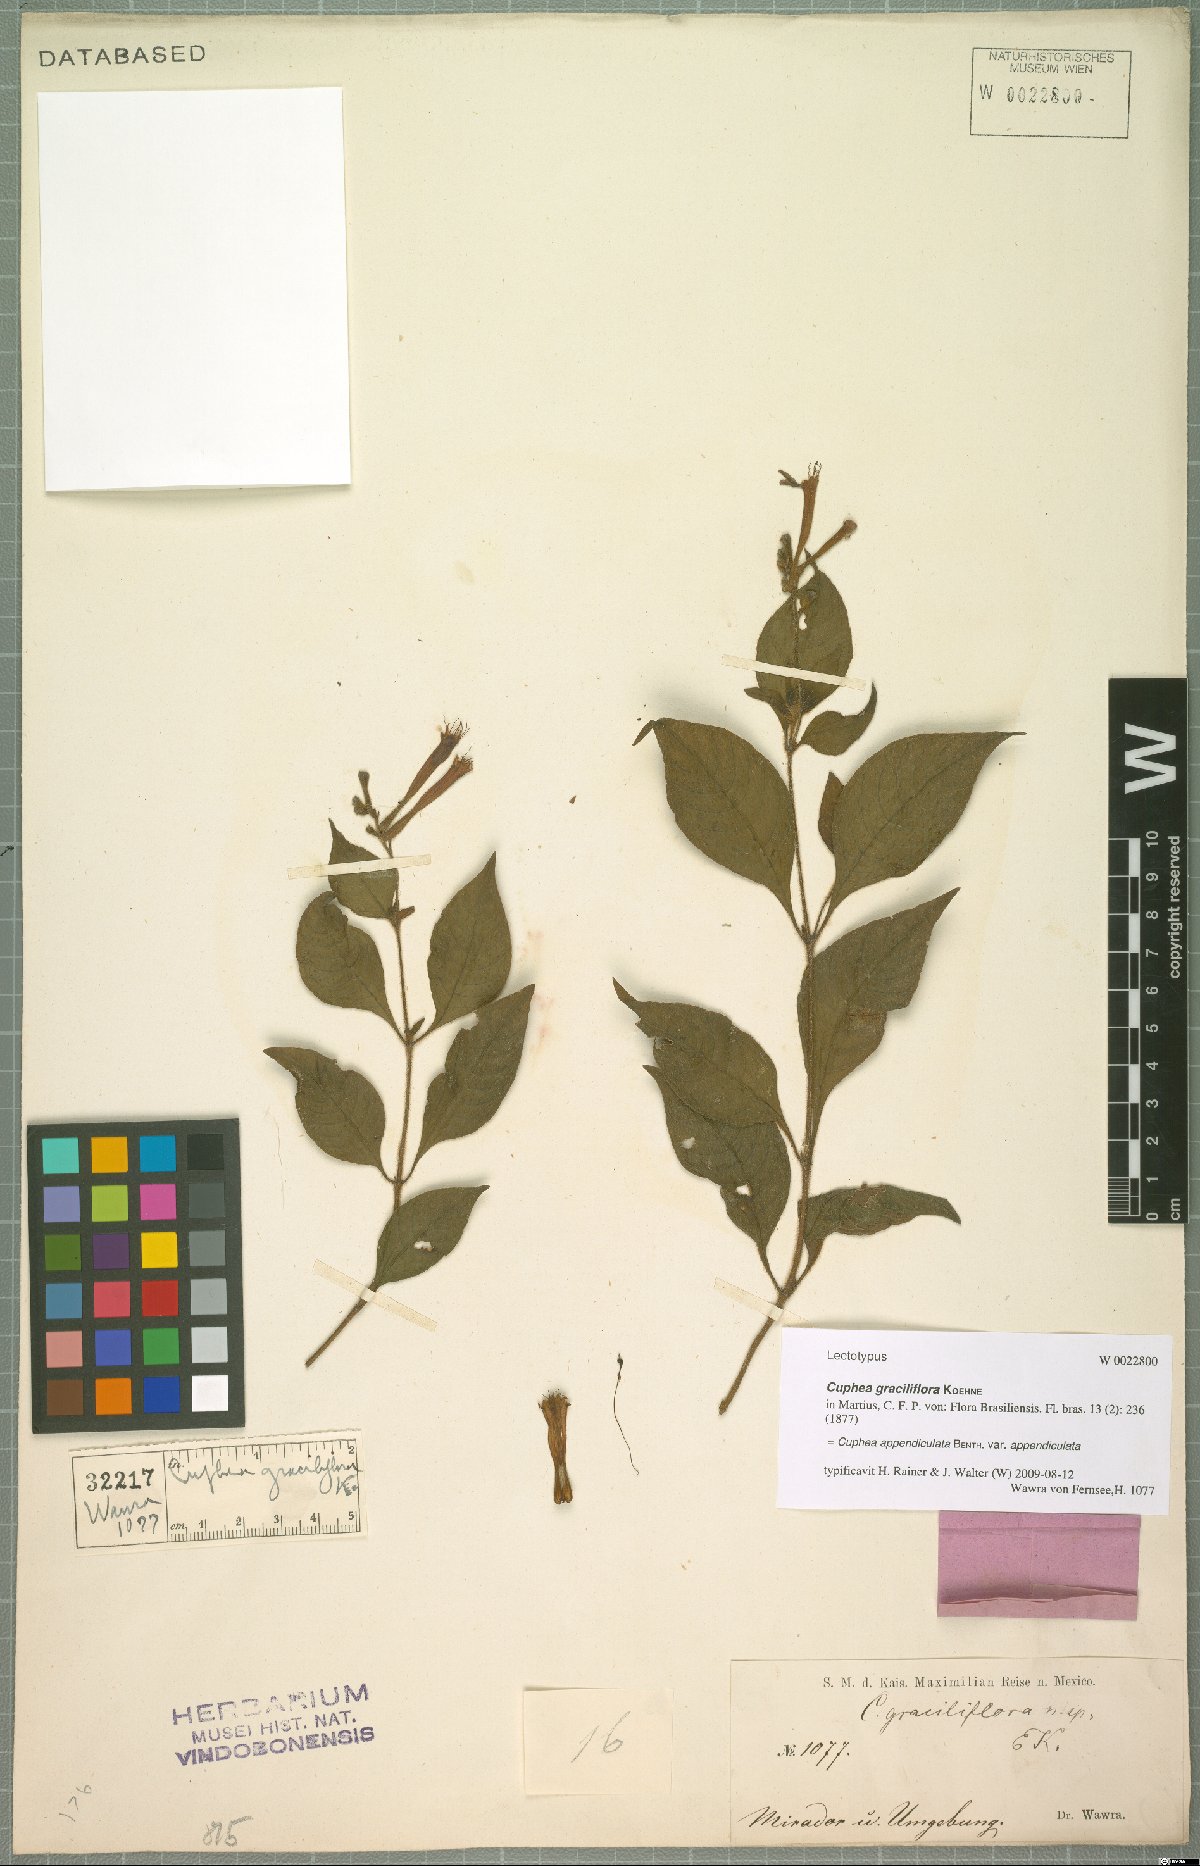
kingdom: Plantae
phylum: Tracheophyta
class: Magnoliopsida
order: Myrtales
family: Lythraceae
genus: Cuphea
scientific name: Cuphea appendiculata
